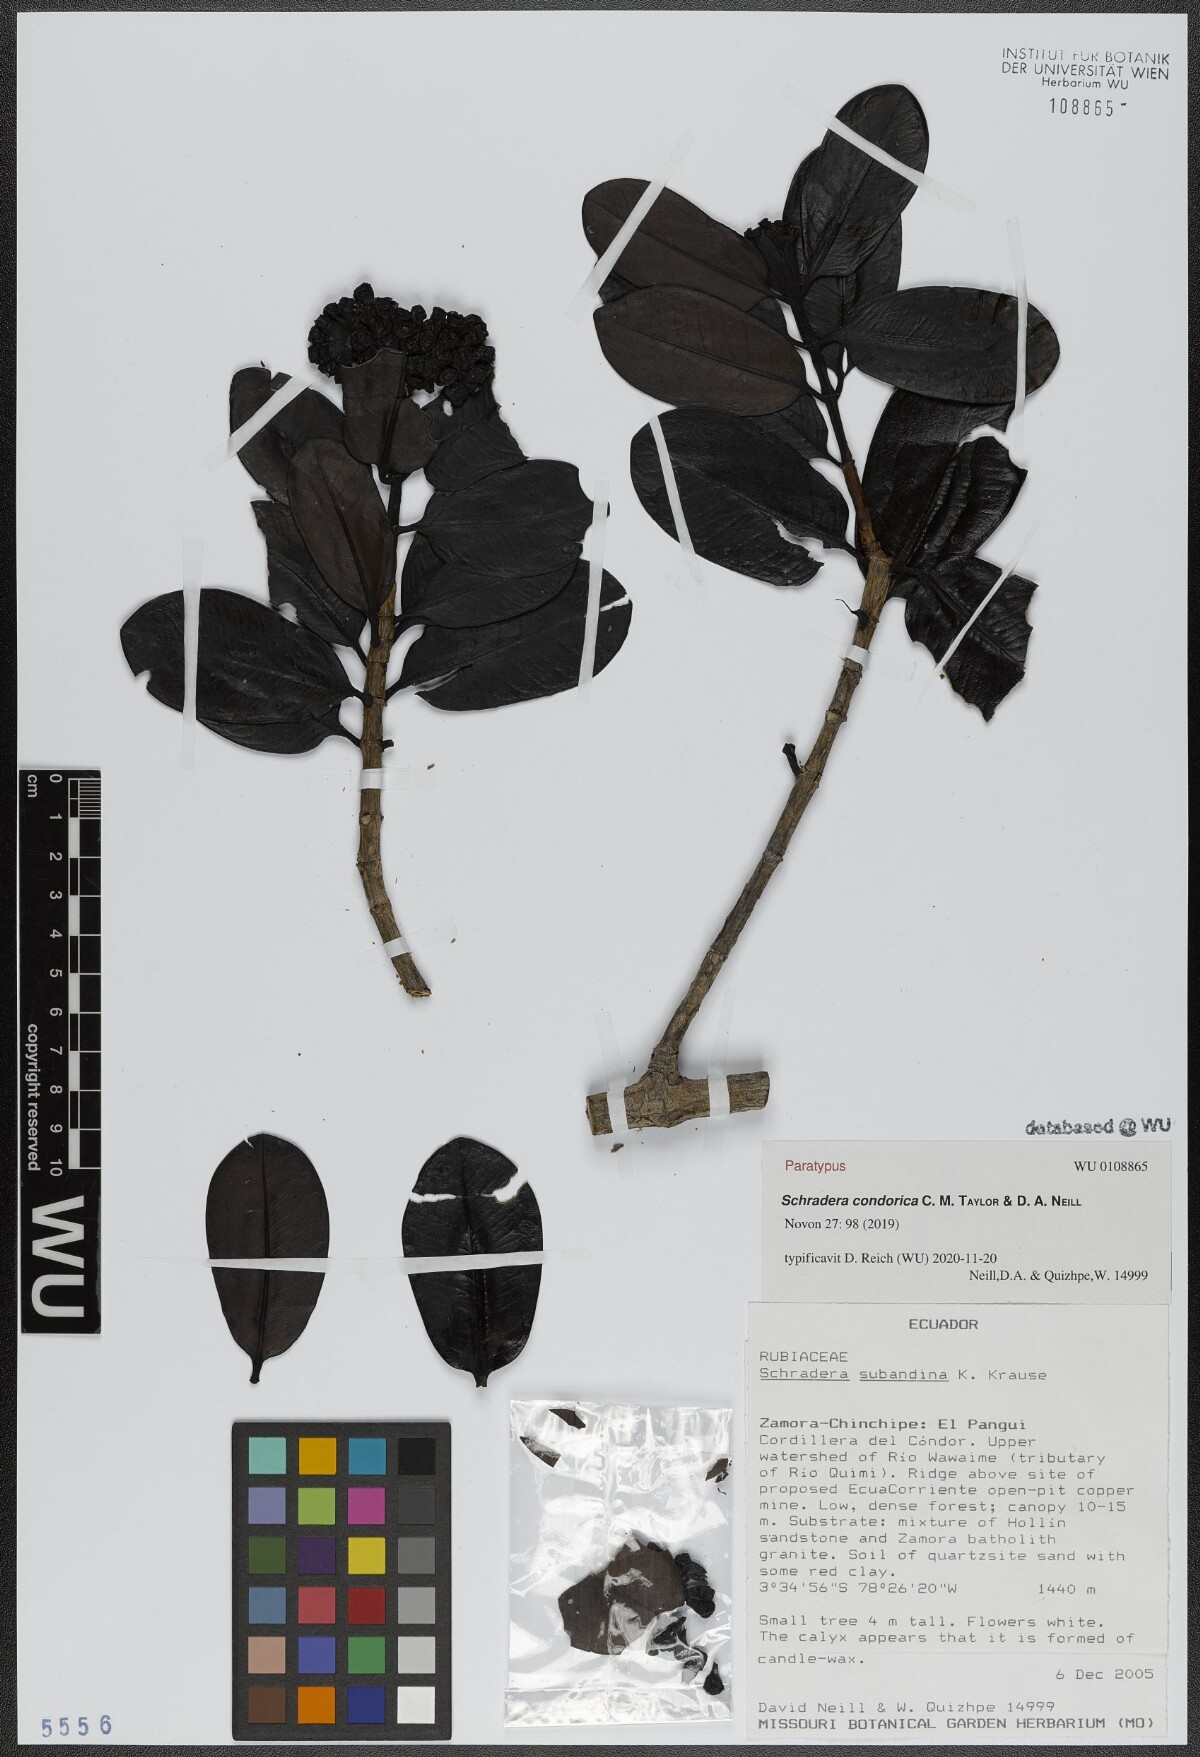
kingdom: Plantae
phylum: Tracheophyta
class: Magnoliopsida
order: Gentianales
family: Rubiaceae
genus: Schradera
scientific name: Schradera condorica
